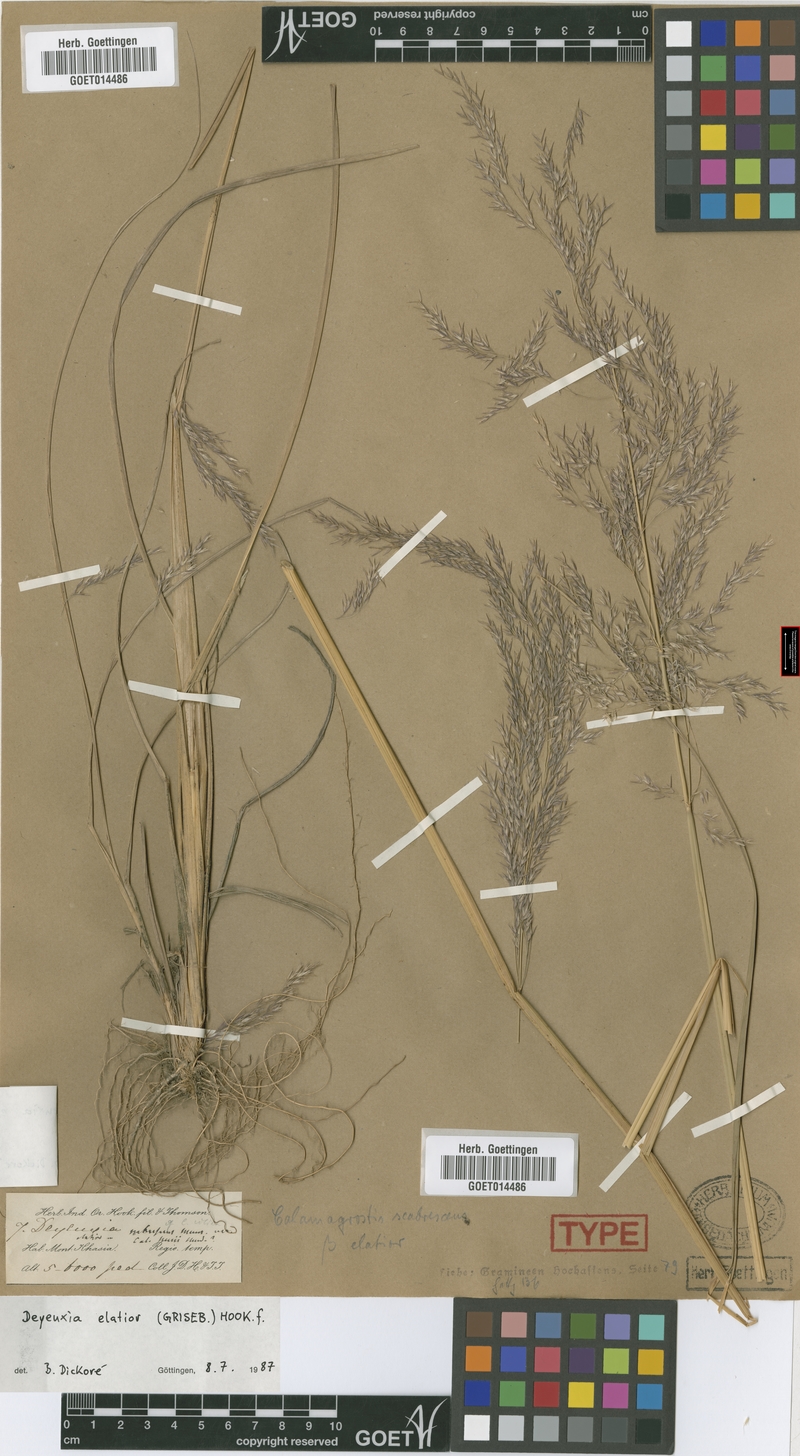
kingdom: Plantae
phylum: Tracheophyta
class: Liliopsida
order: Poales
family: Poaceae
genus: Calamagrostis
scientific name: Calamagrostis elatior
